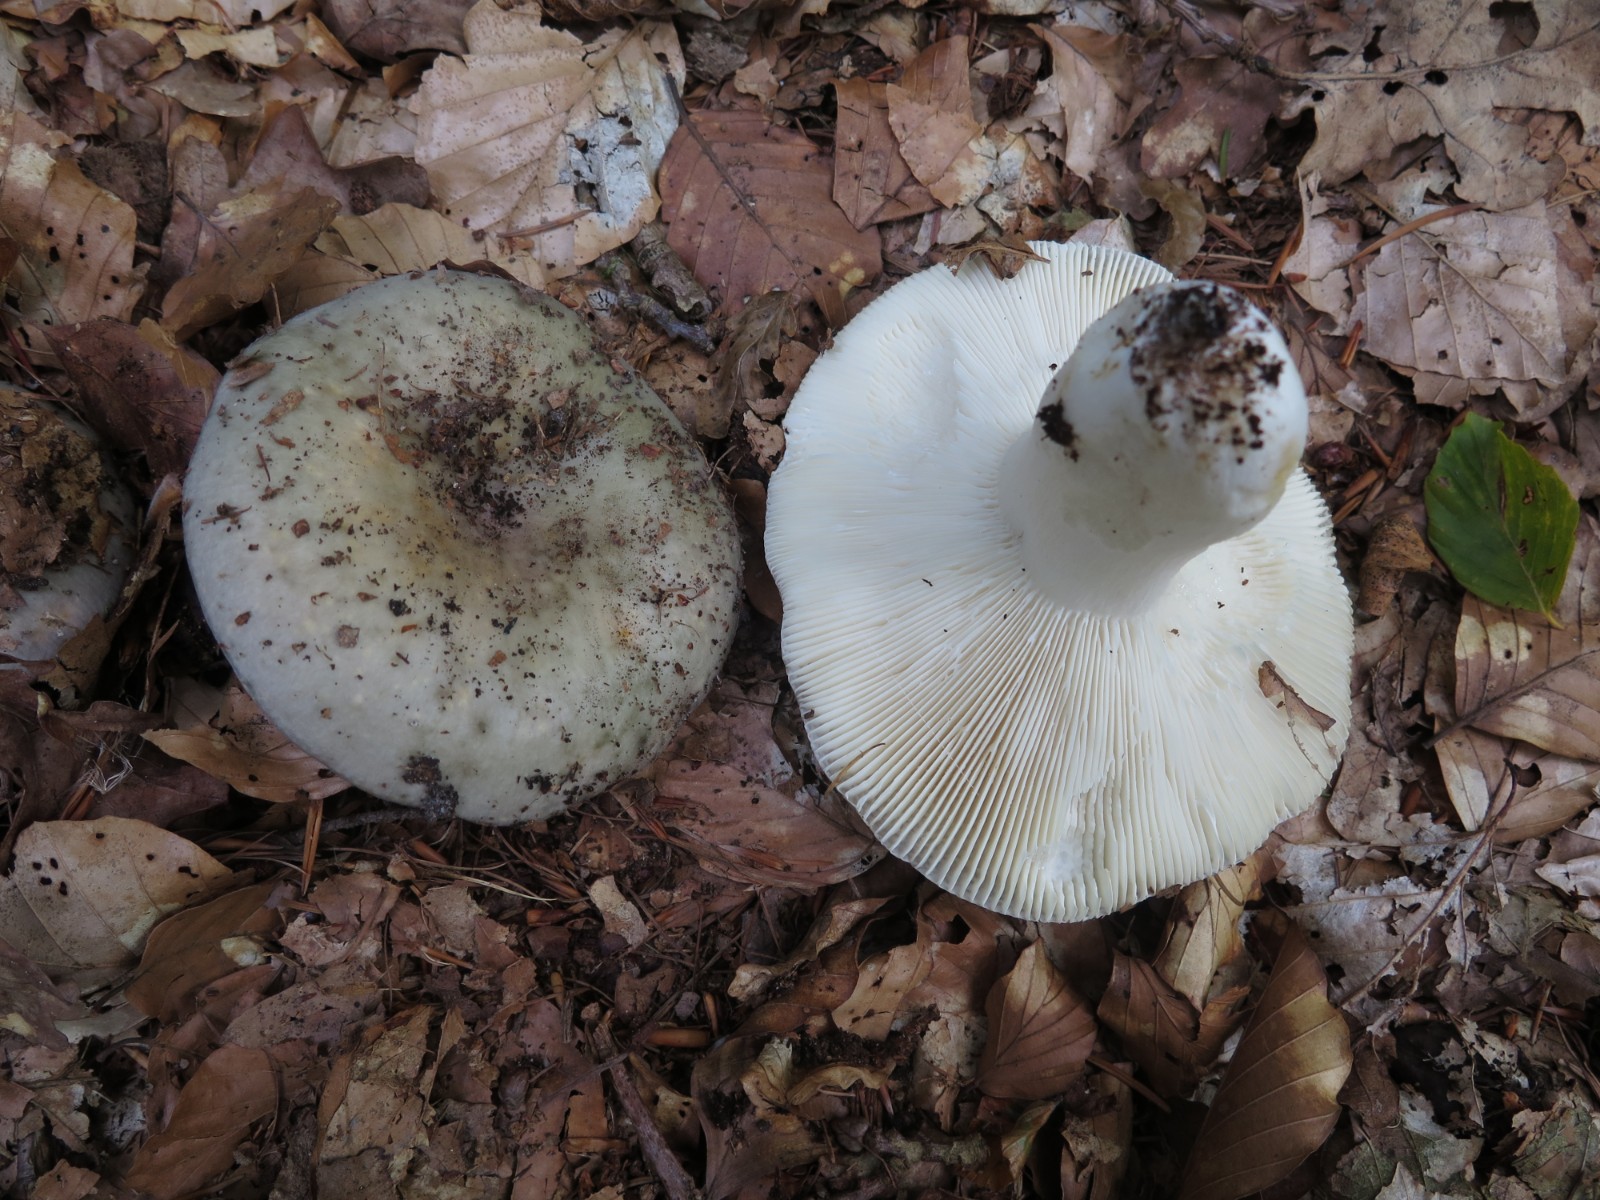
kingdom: Fungi
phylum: Basidiomycota
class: Agaricomycetes
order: Russulales
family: Russulaceae
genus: Russula
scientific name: Russula virescens
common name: spanskgrøn skørhat
